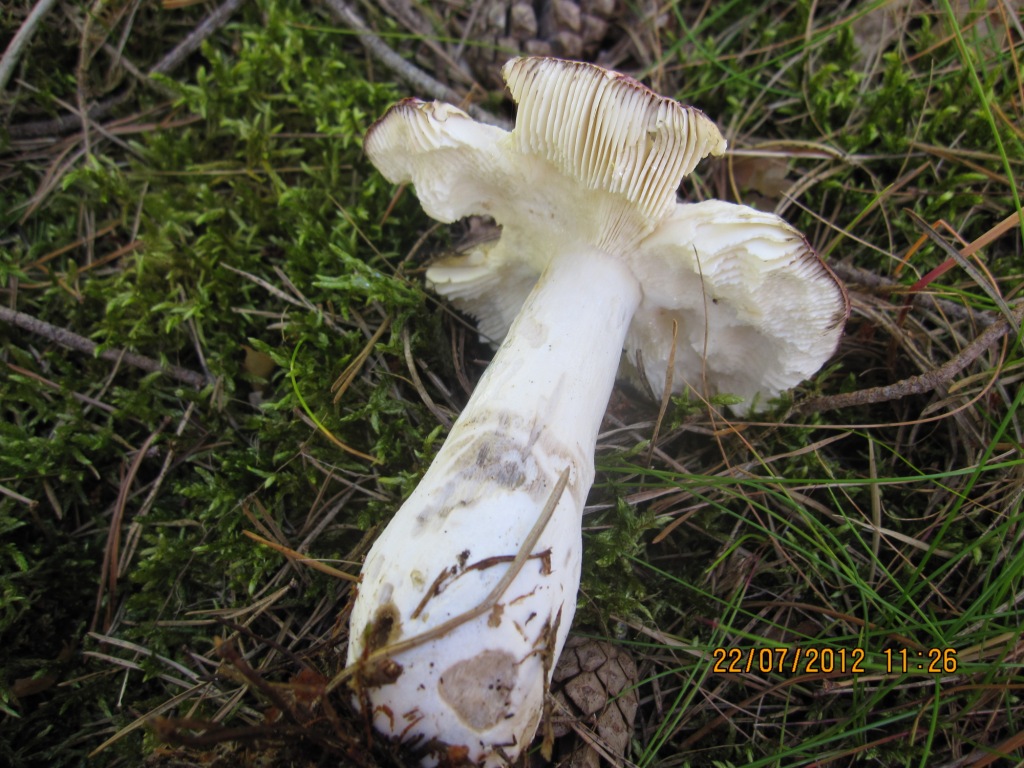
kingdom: Fungi
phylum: Basidiomycota
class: Agaricomycetes
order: Russulales
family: Russulaceae
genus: Russula
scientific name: Russula vinosa
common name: vinrød skørhat
